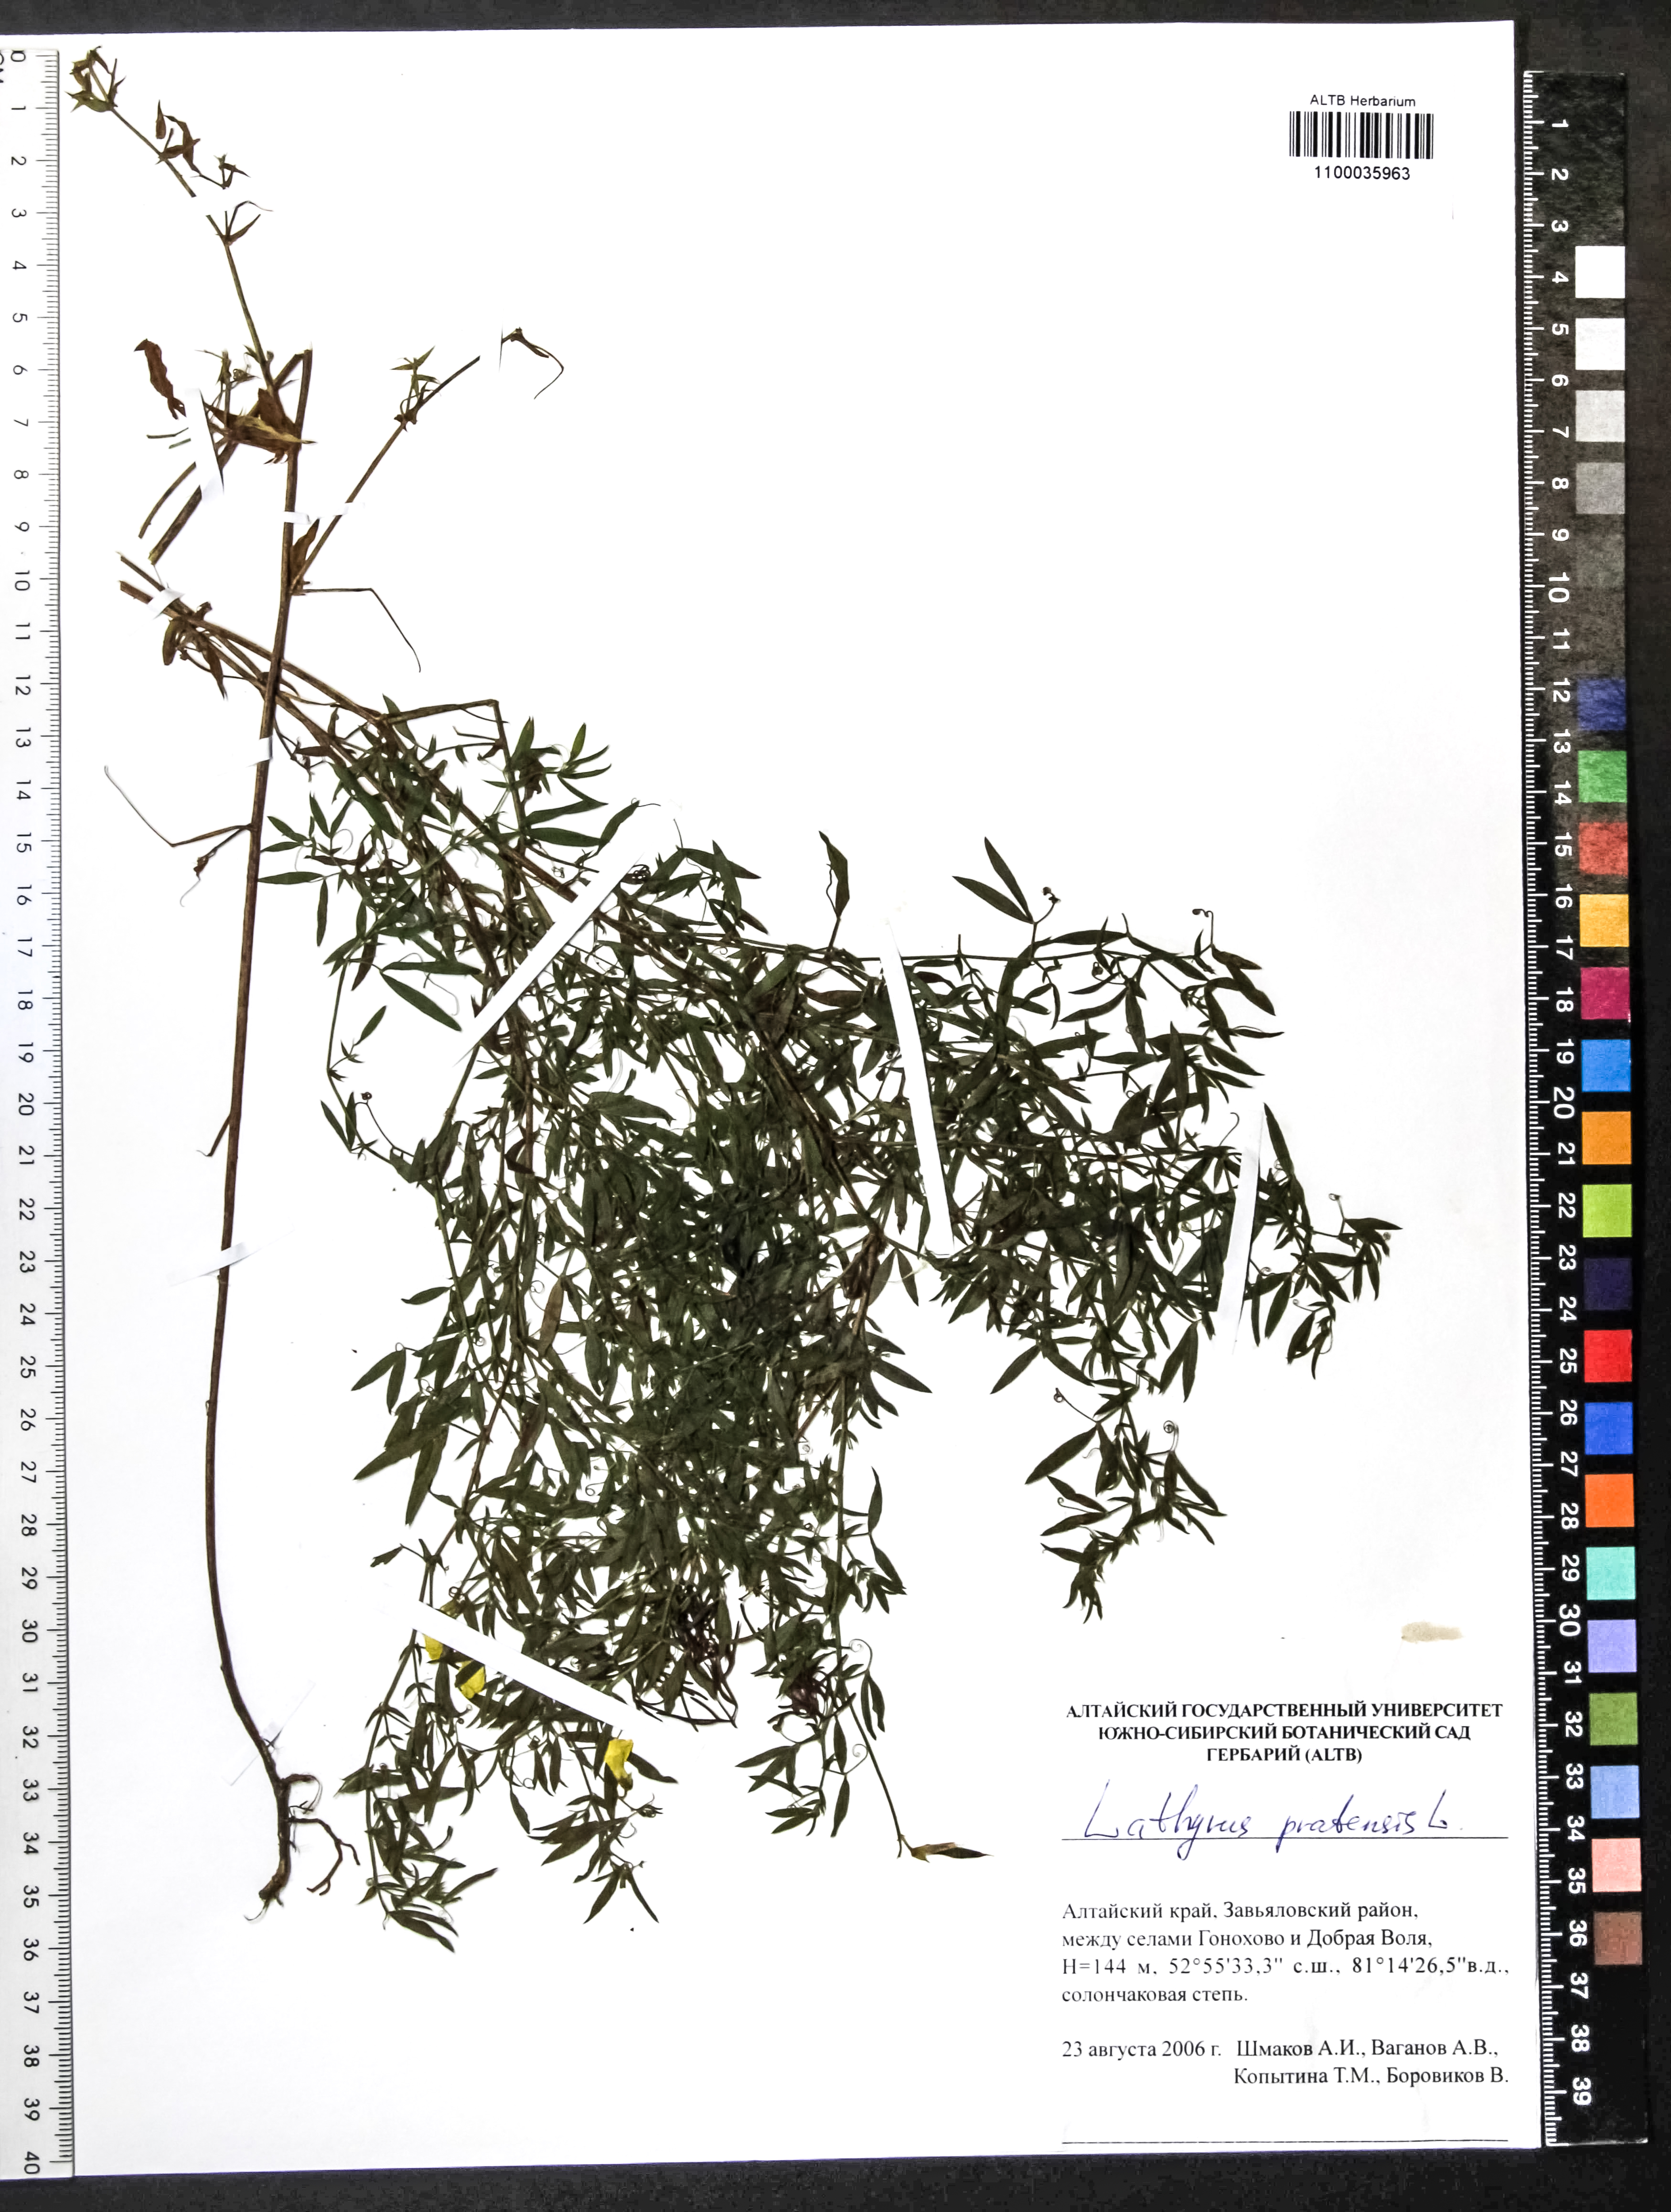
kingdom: Plantae
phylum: Tracheophyta
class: Magnoliopsida
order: Fabales
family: Fabaceae
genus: Lathyrus
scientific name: Lathyrus pratensis
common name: Meadow vetchling
